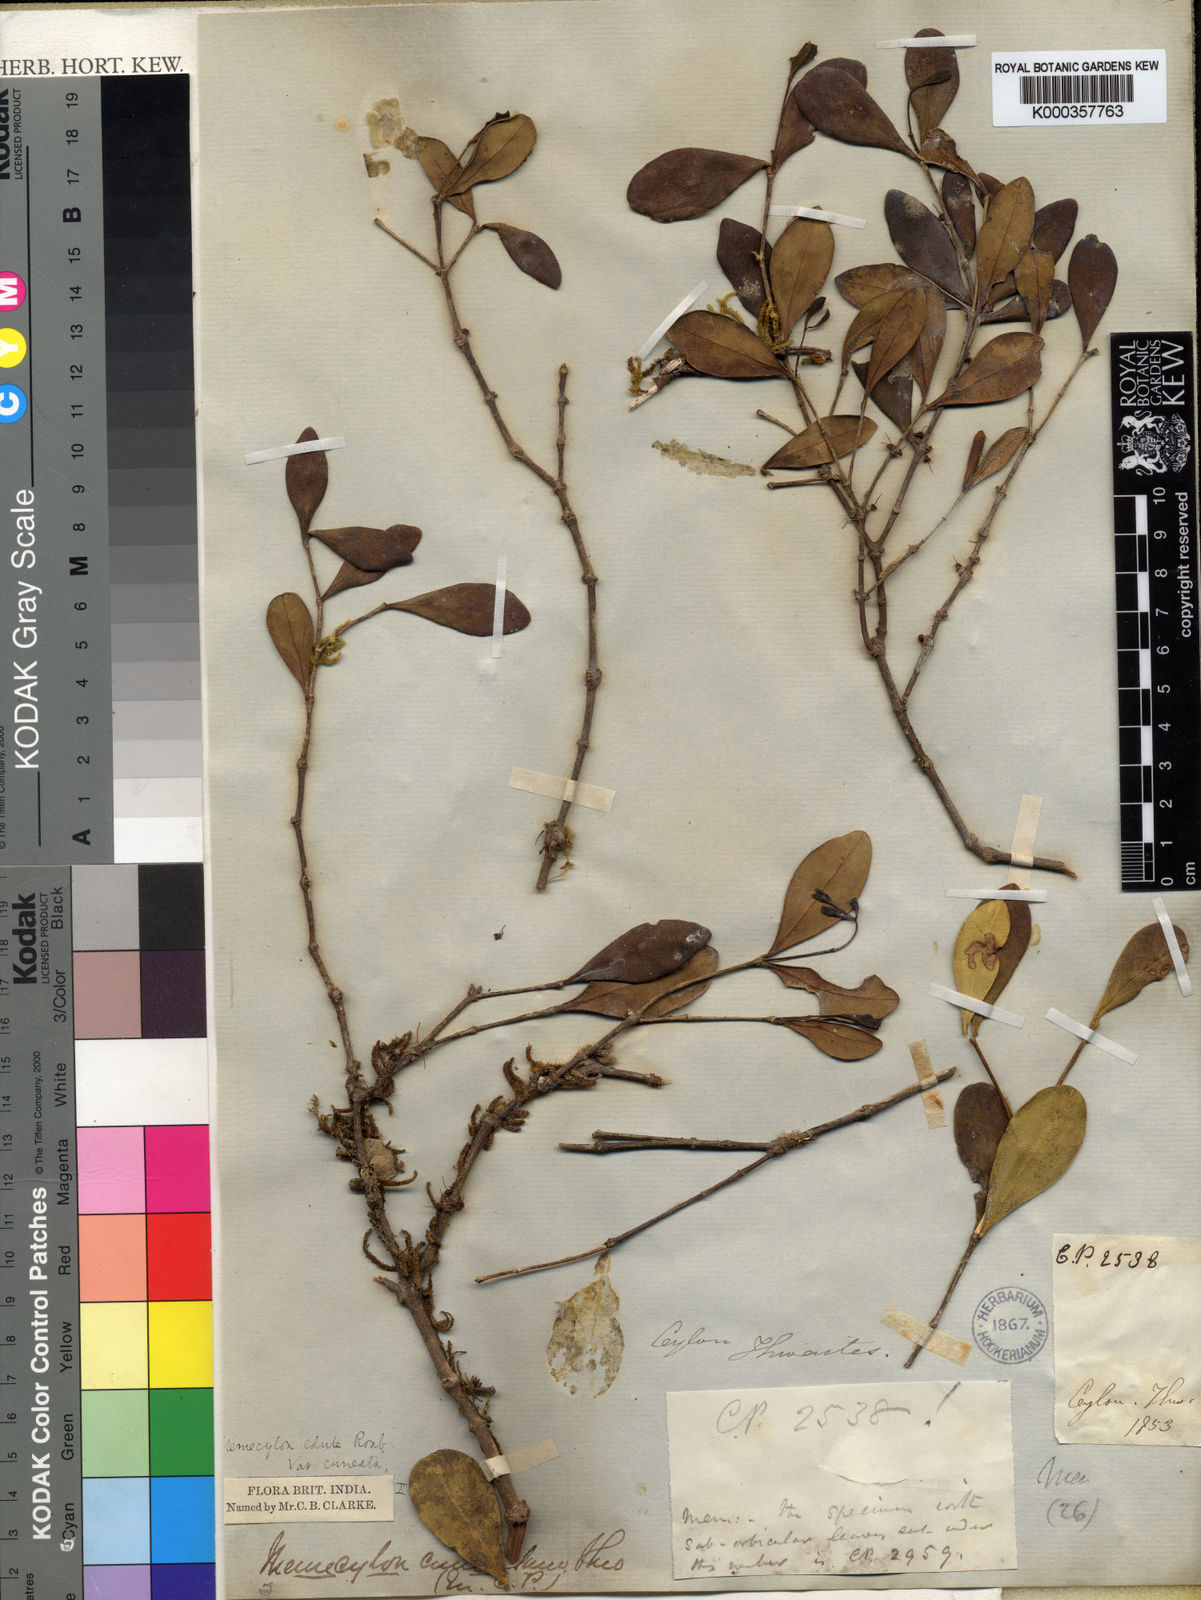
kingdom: Plantae
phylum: Tracheophyta
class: Magnoliopsida
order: Myrtales
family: Melastomataceae
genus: Memecylon
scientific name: Memecylon cuneatum
